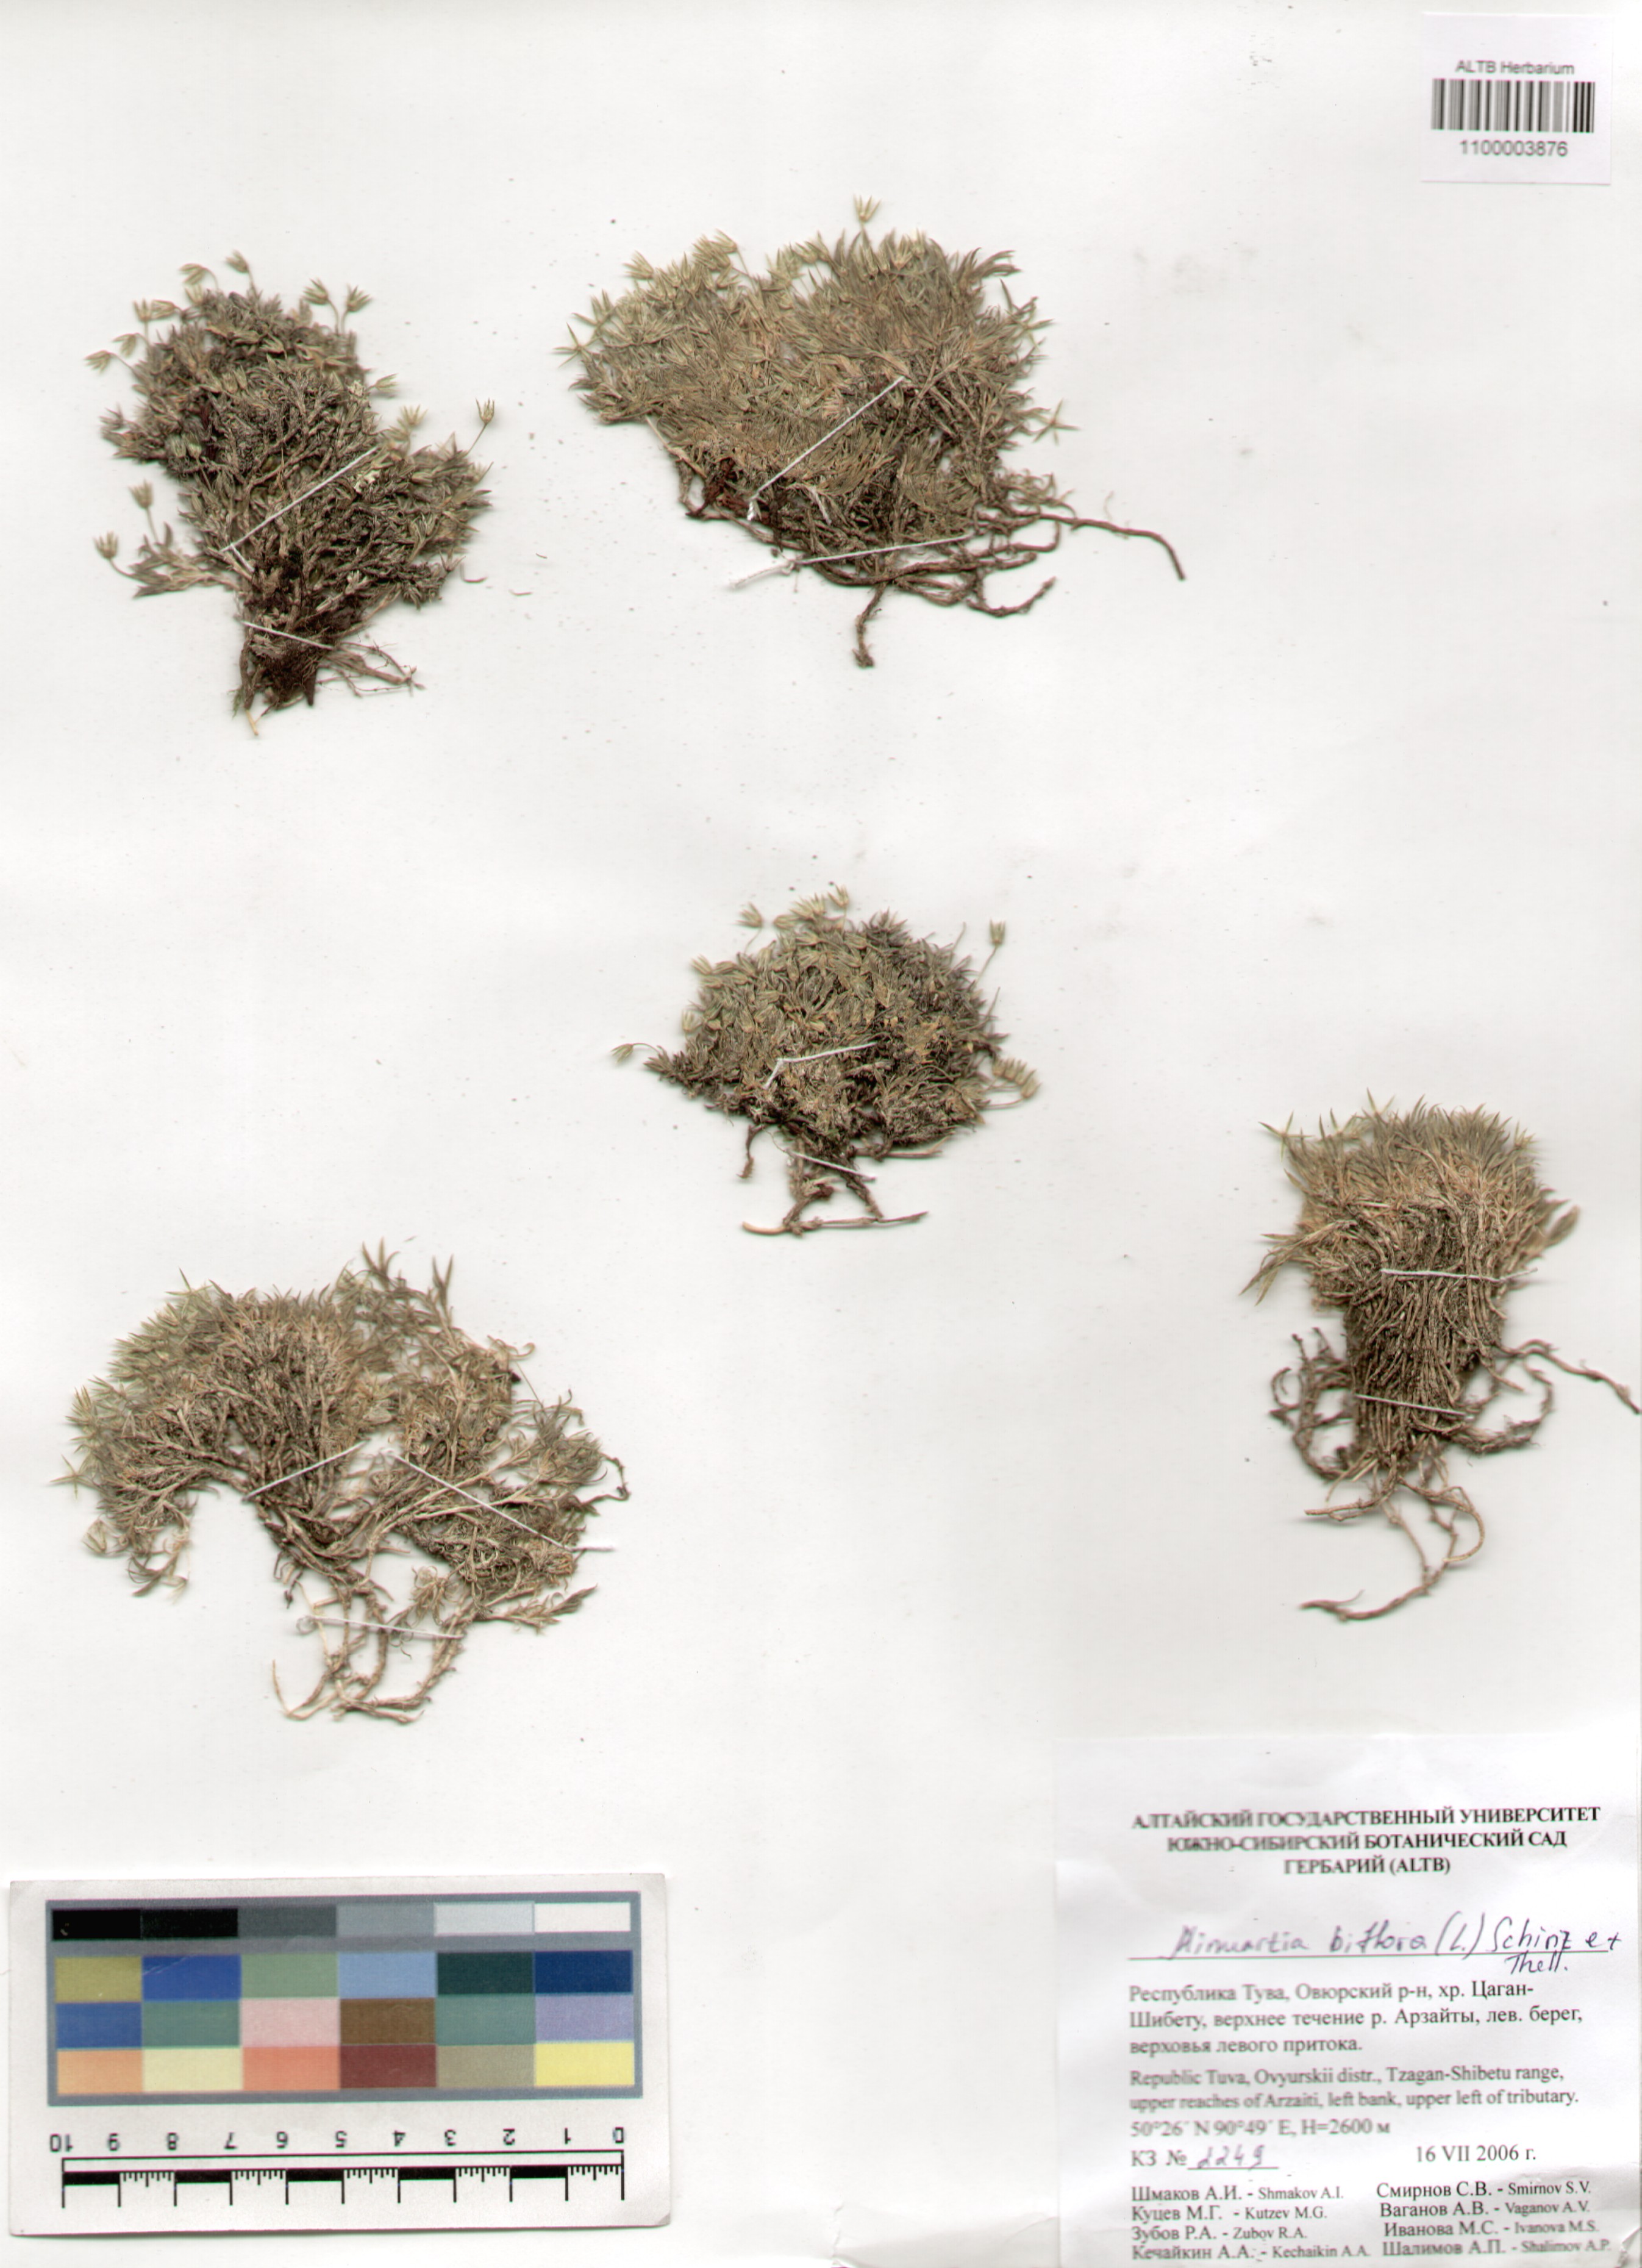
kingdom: Plantae
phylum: Tracheophyta
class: Magnoliopsida
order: Caryophyllales
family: Caryophyllaceae
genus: Cherleria
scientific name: Cherleria biflora
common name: Mountain sandwort
